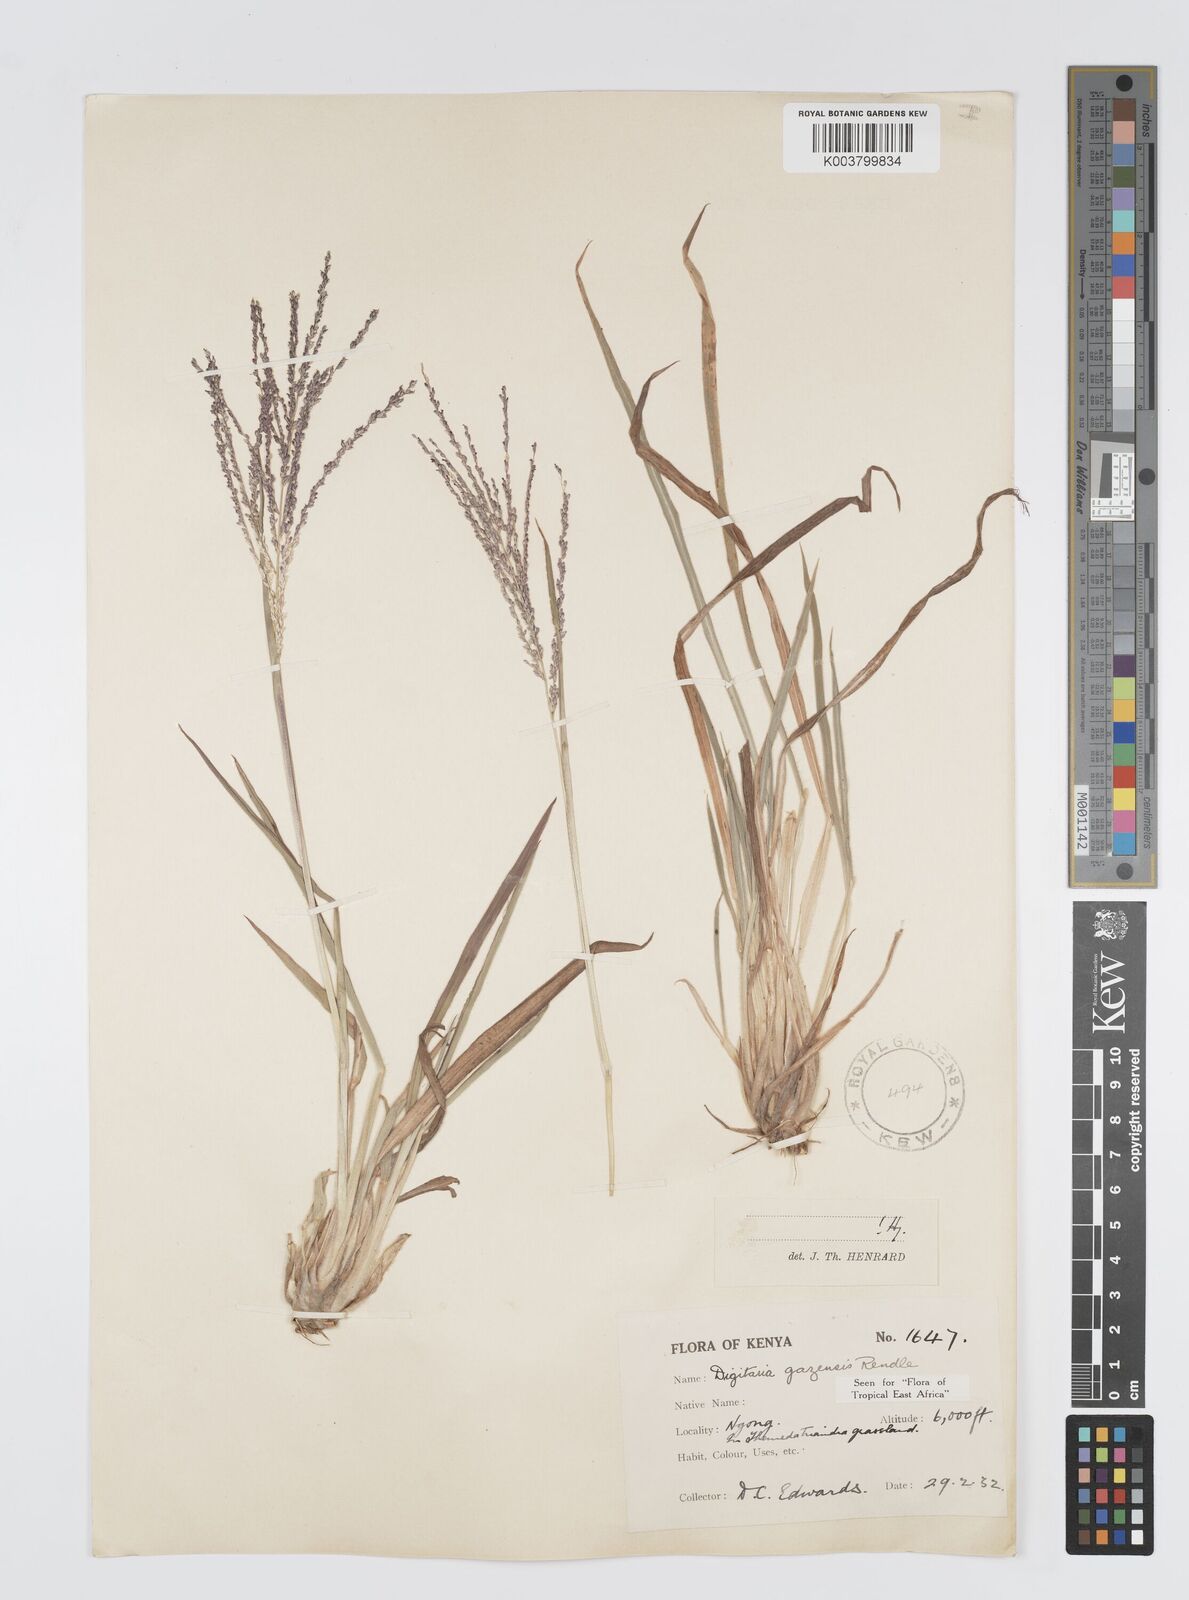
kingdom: Plantae
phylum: Tracheophyta
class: Liliopsida
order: Poales
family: Poaceae
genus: Digitaria
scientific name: Digitaria gazensis
